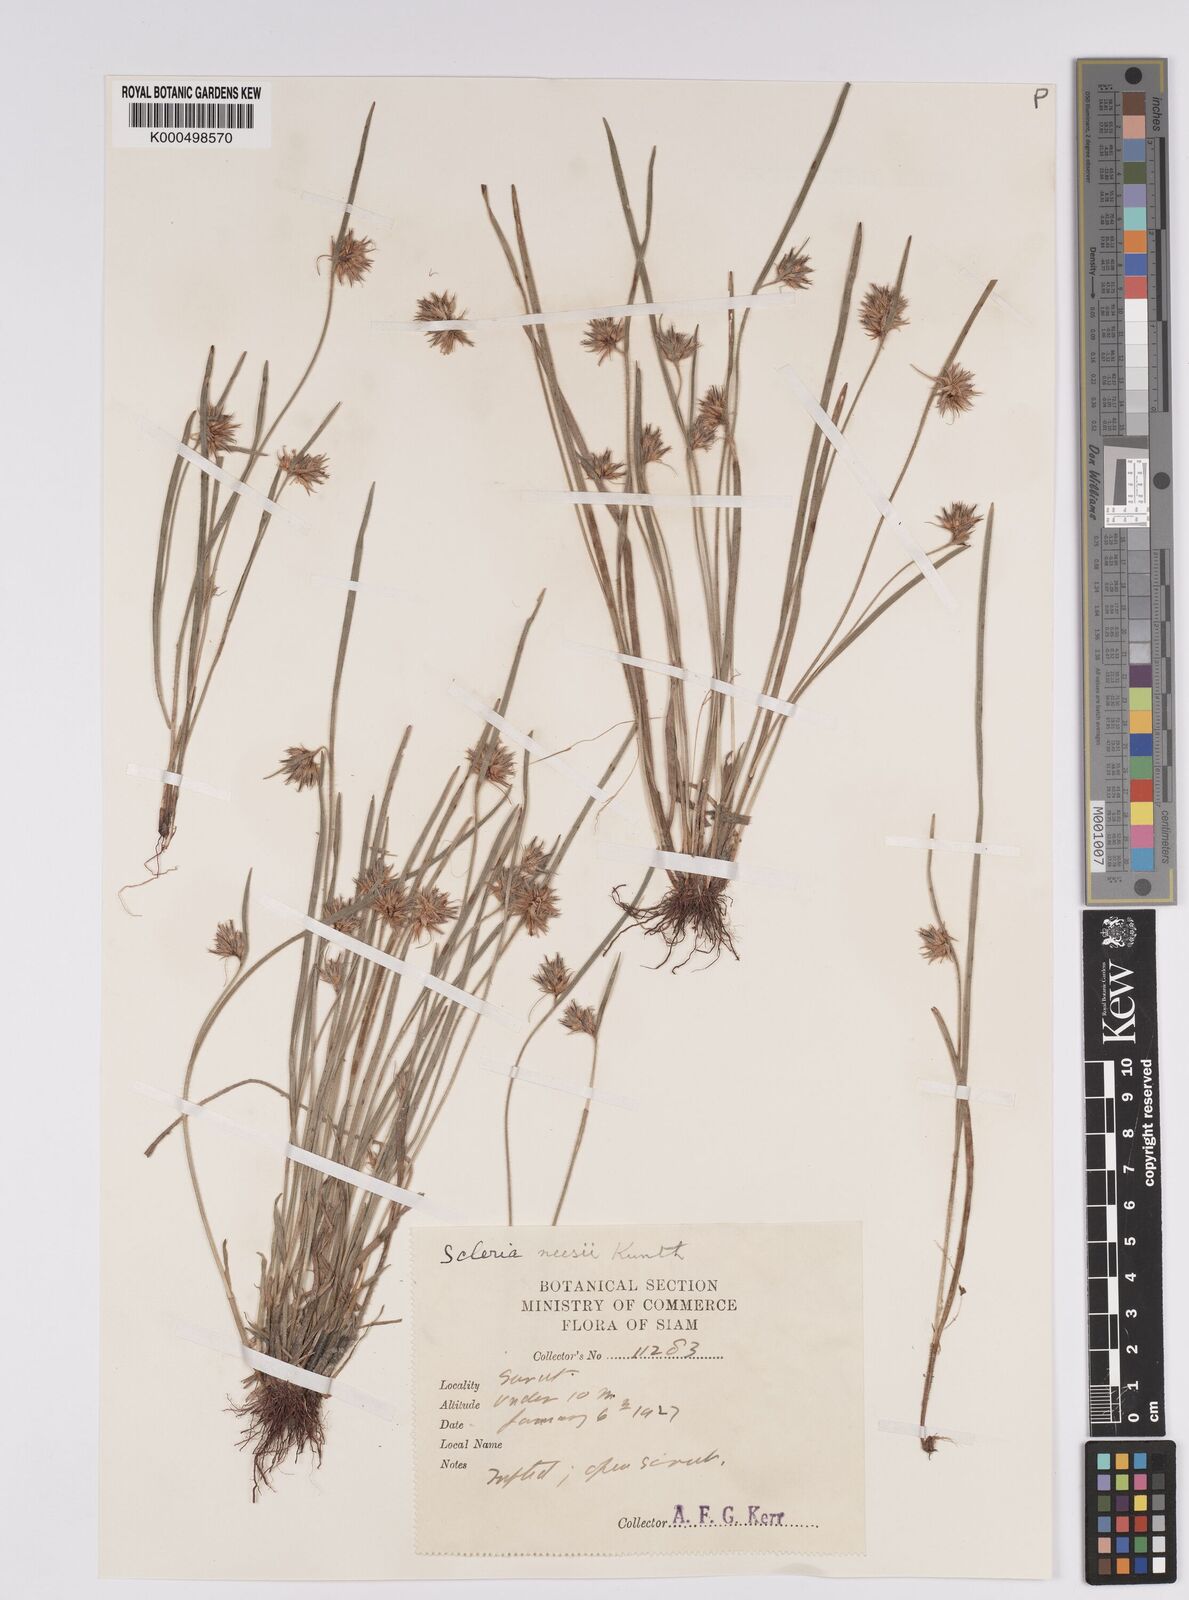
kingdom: Plantae
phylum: Tracheophyta
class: Liliopsida
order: Poales
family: Cyperaceae
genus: Scleria
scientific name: Scleria neesii
